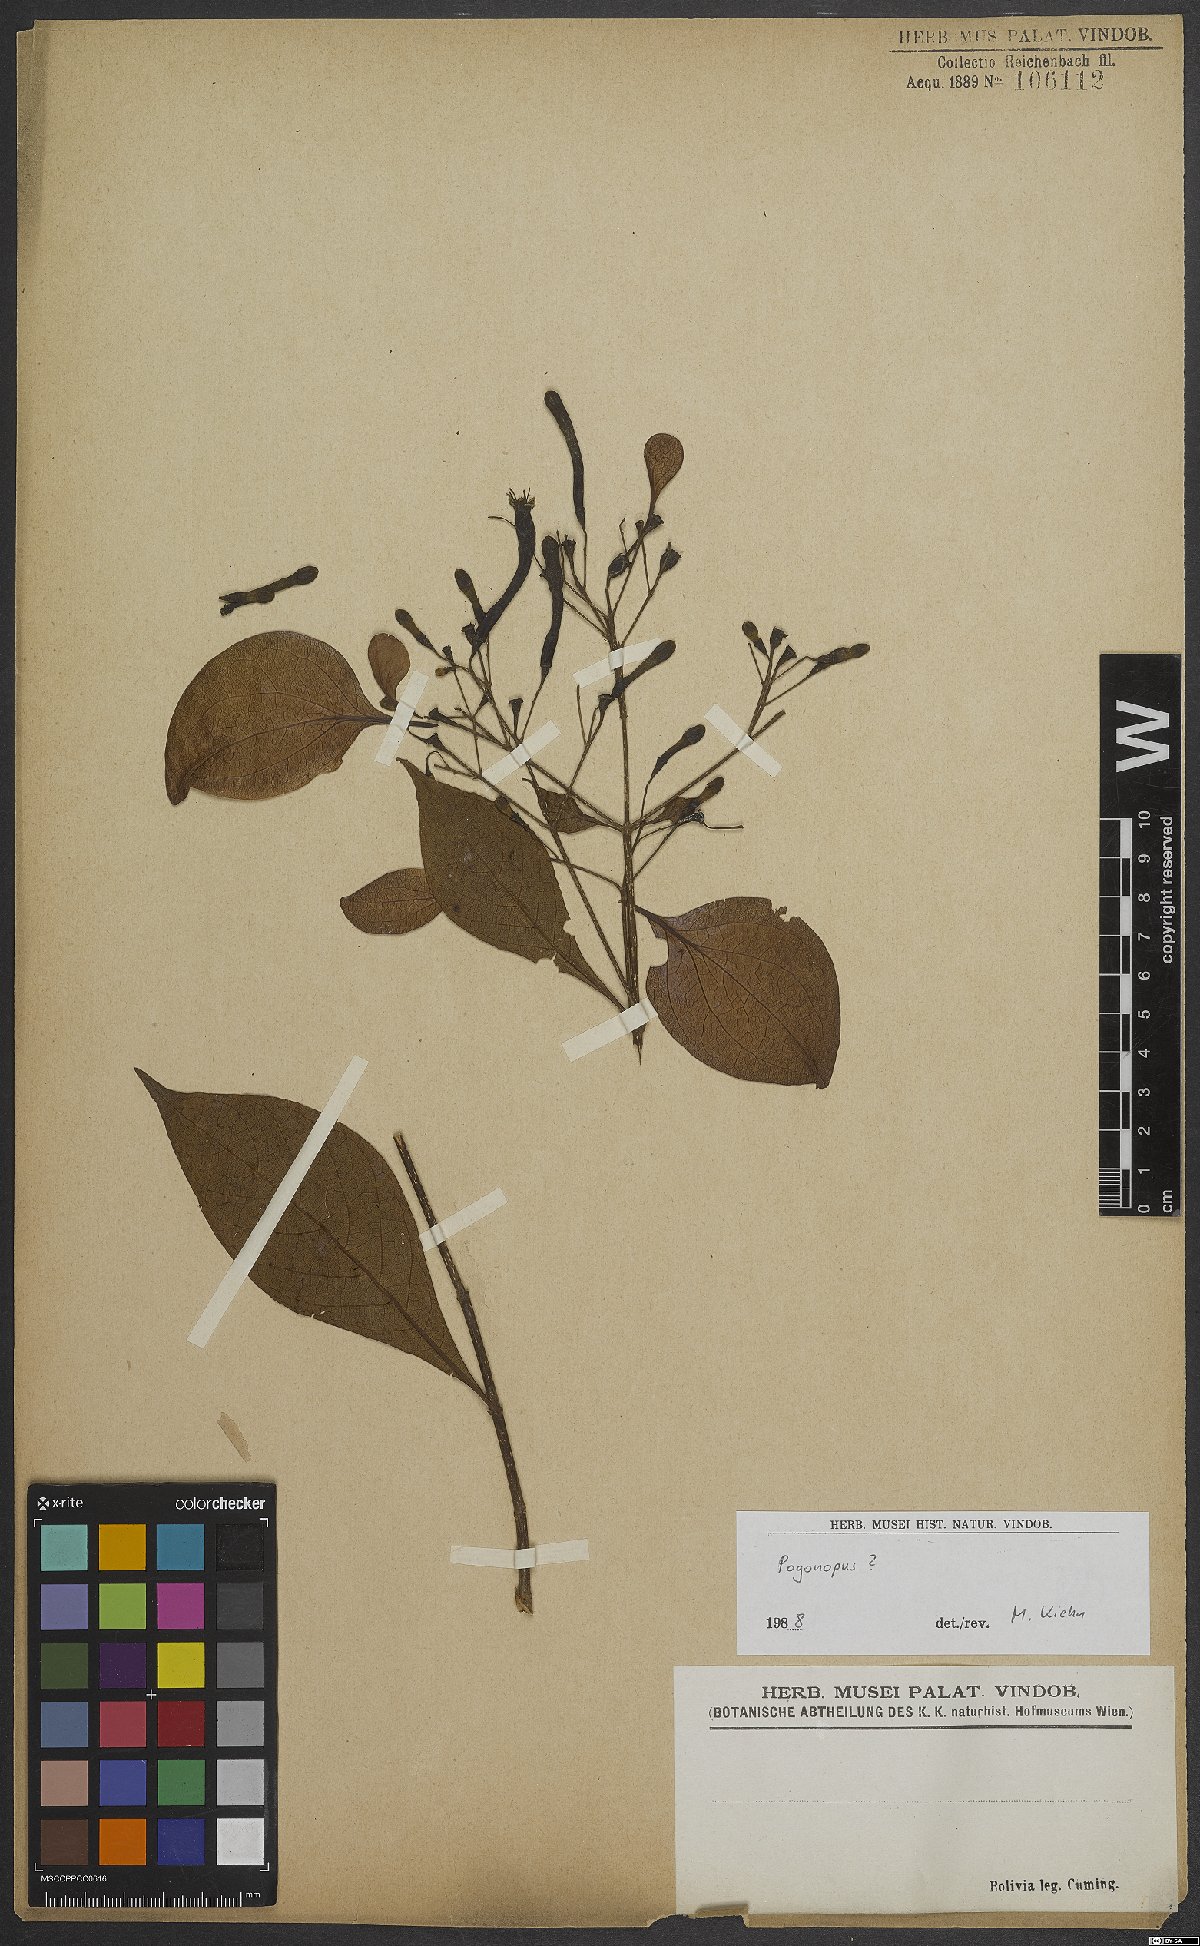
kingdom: Plantae
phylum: Tracheophyta
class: Magnoliopsida
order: Gentianales
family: Rubiaceae
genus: Pogonopus
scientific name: Pogonopus
